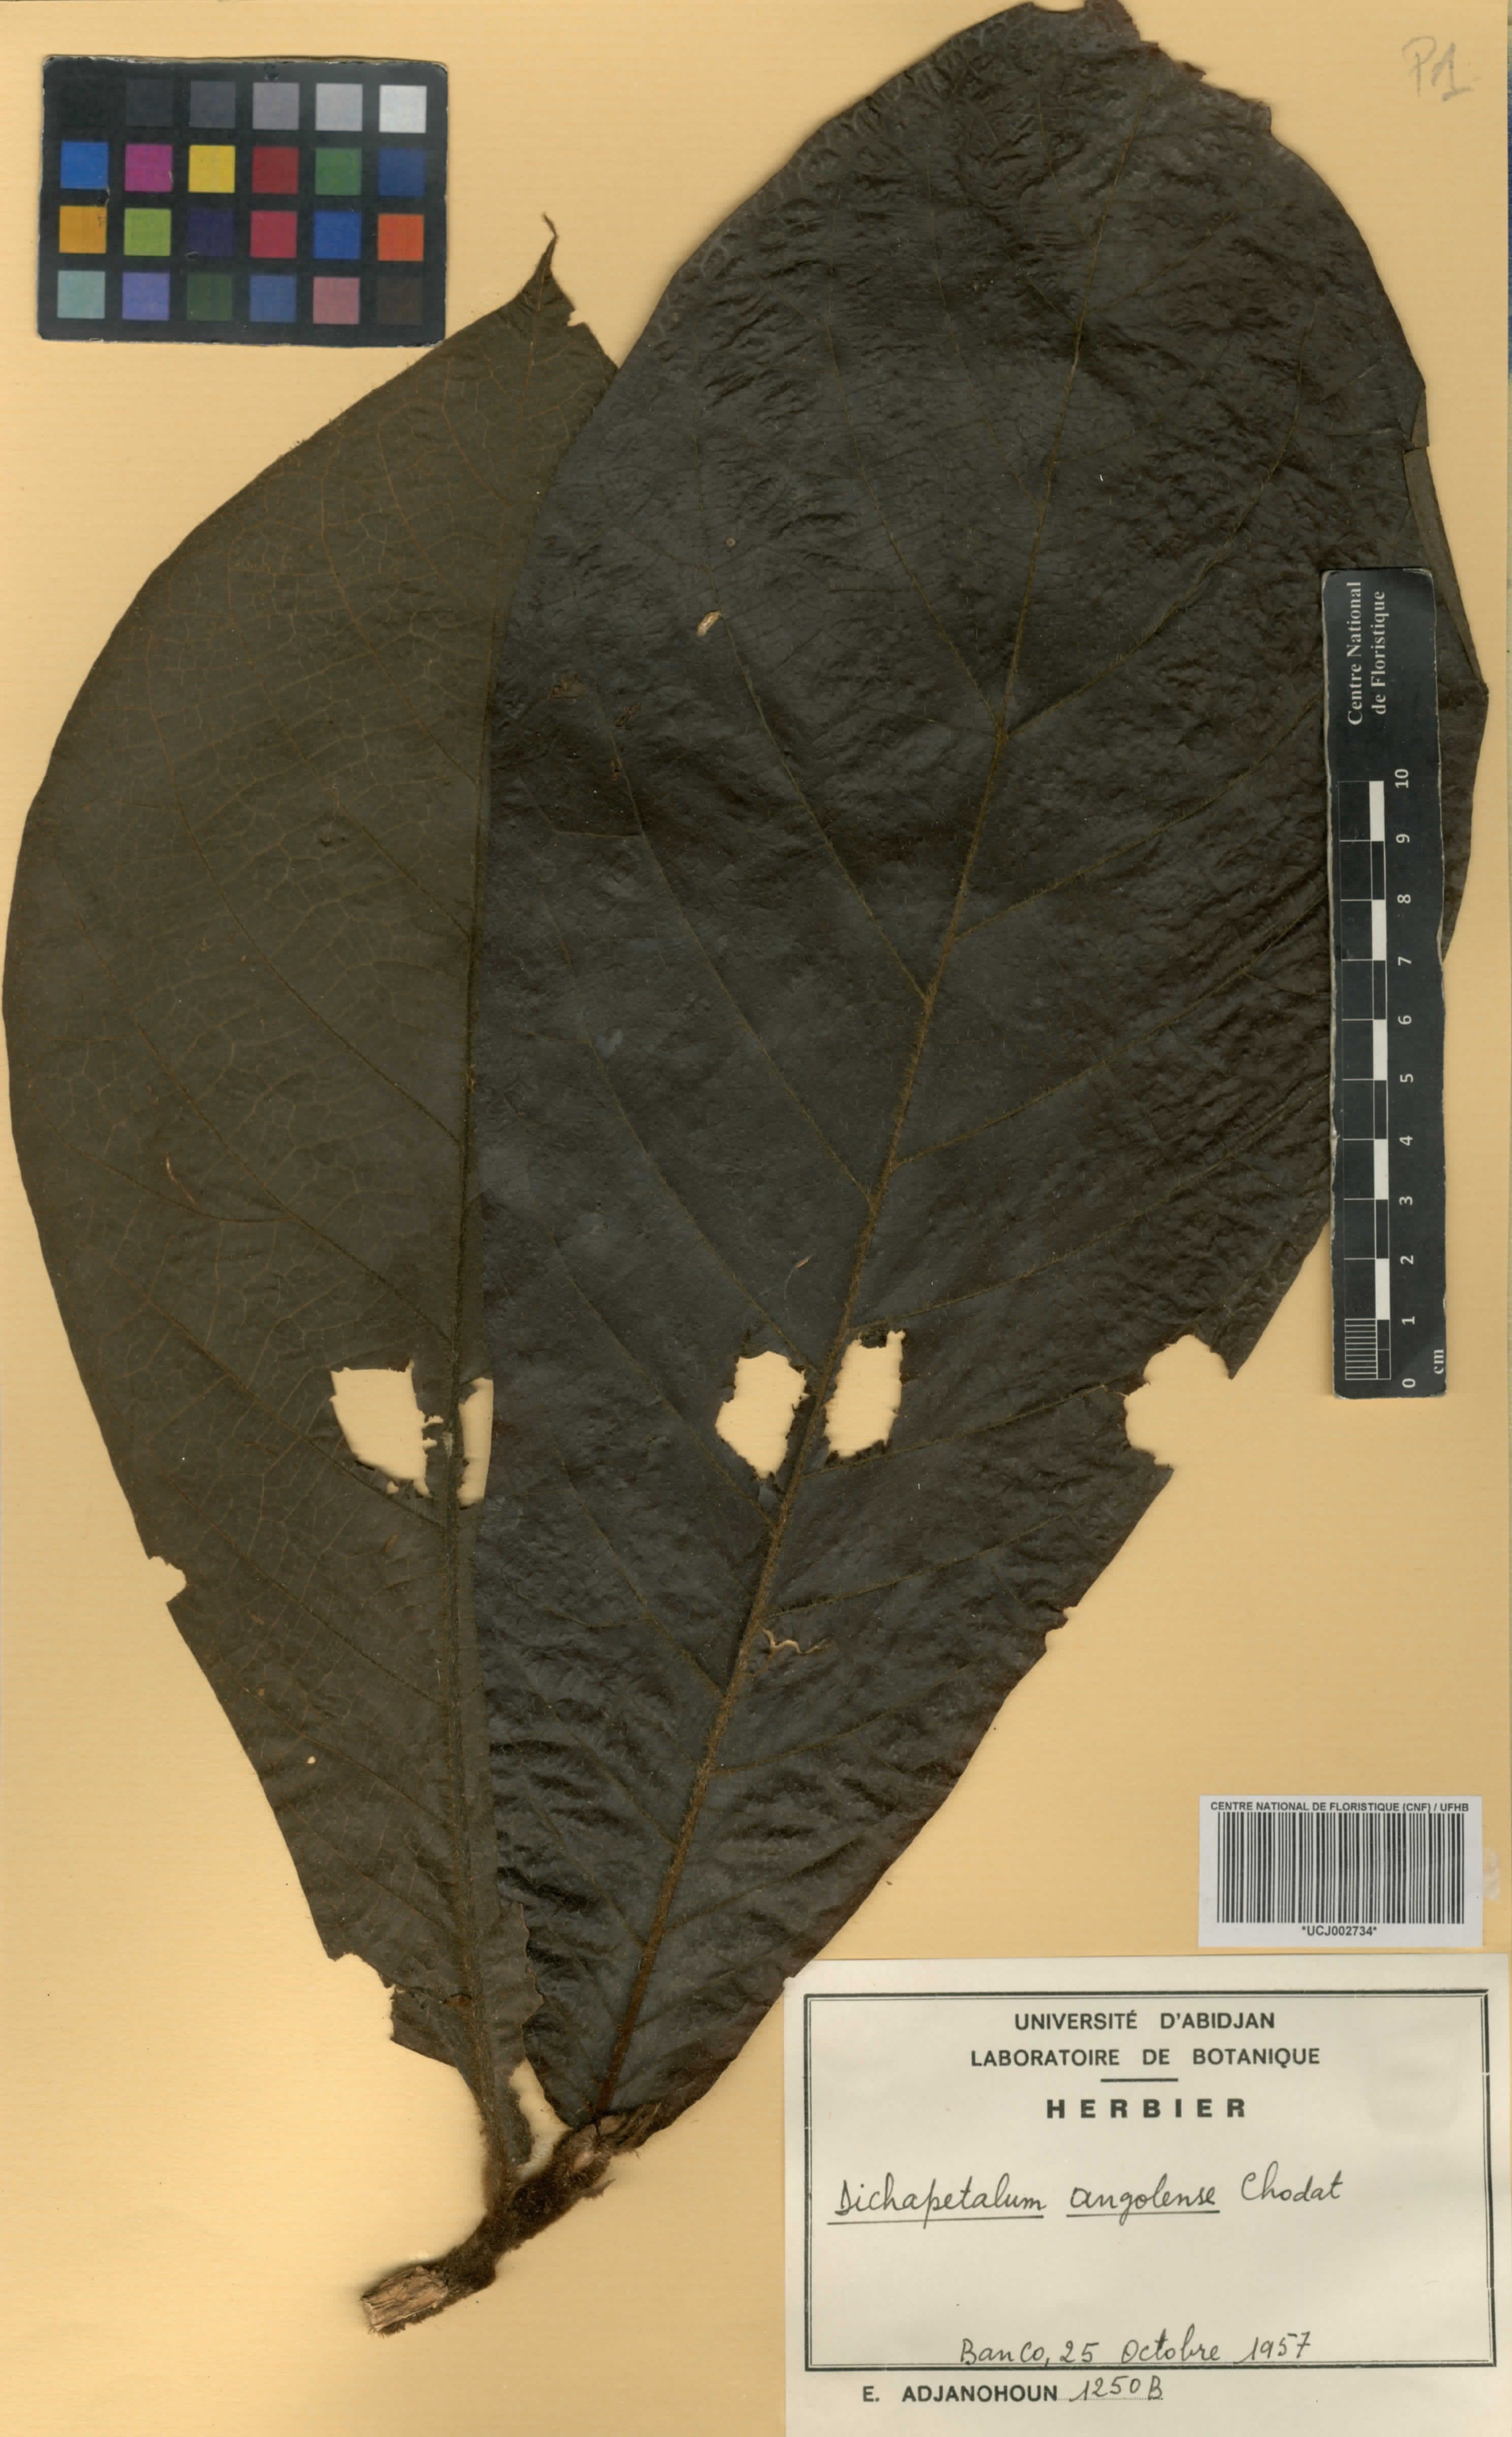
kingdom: Plantae
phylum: Tracheophyta
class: Magnoliopsida
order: Malpighiales
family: Dichapetalaceae
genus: Dichapetalum
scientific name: Dichapetalum angolense
